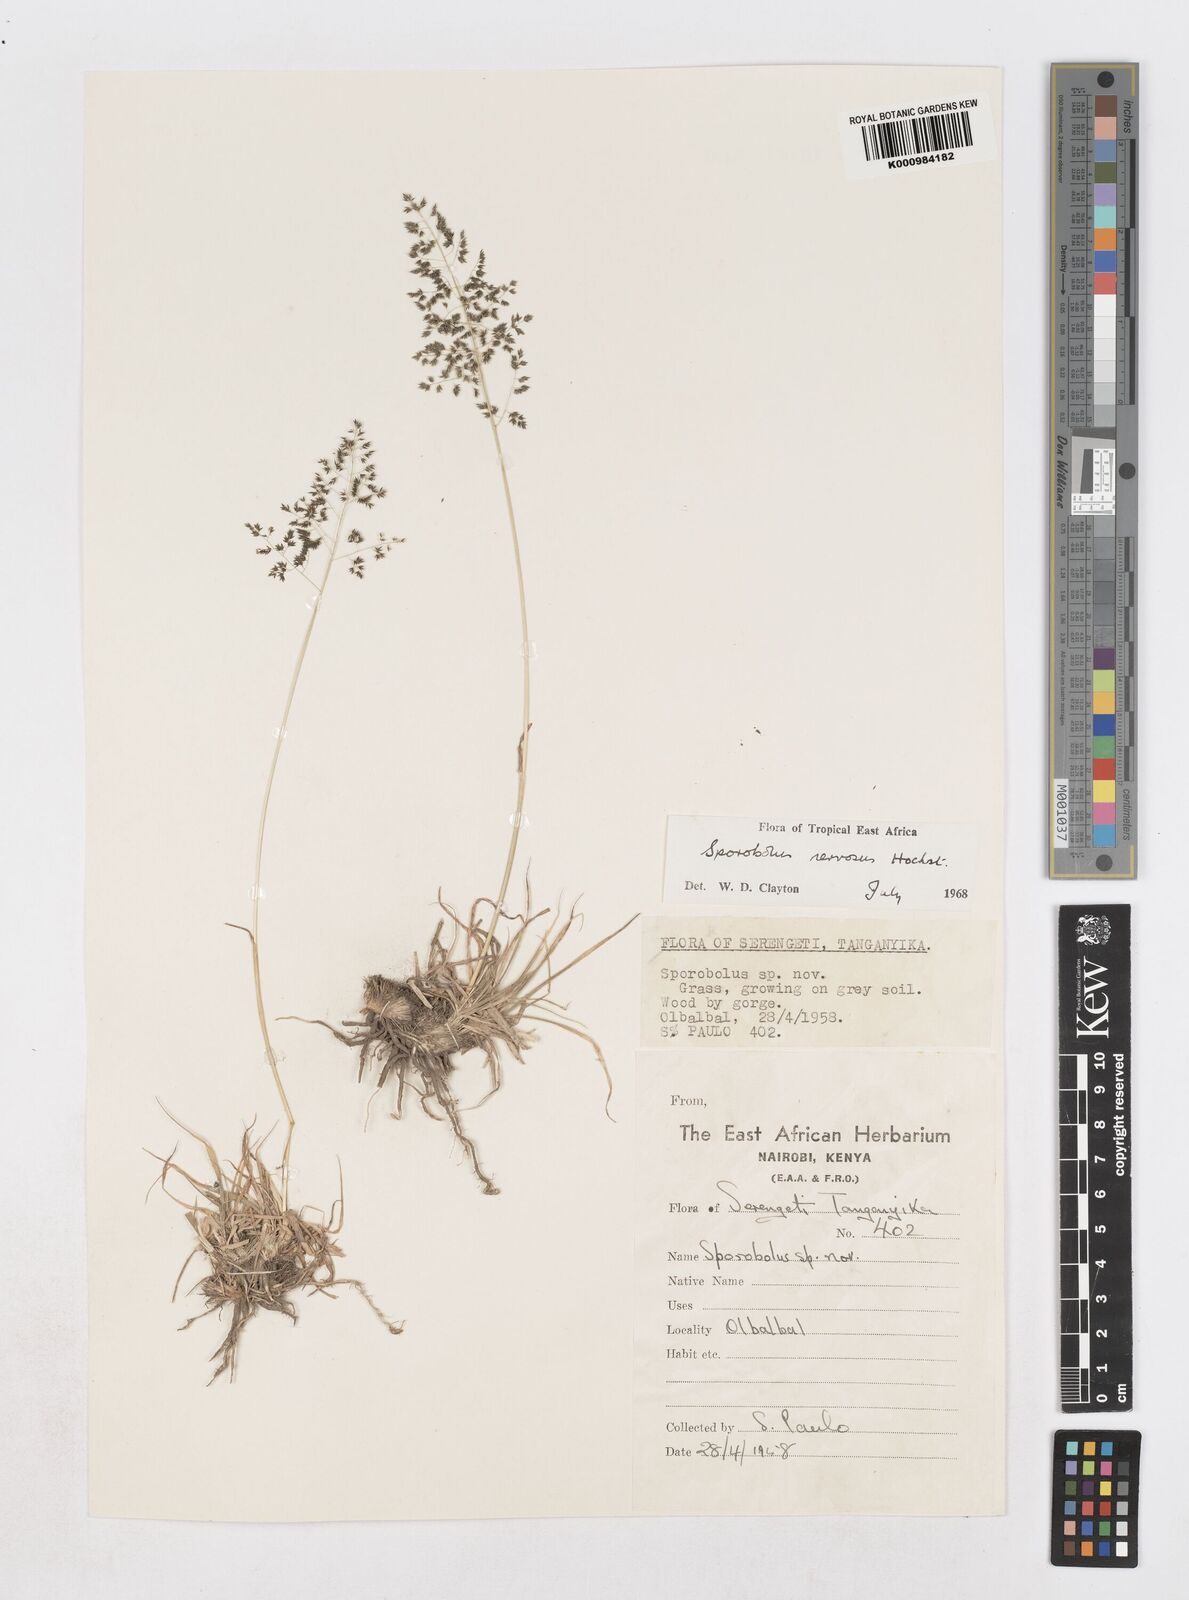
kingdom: Plantae
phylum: Tracheophyta
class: Liliopsida
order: Poales
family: Poaceae
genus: Sporobolus
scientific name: Sporobolus nervosus
